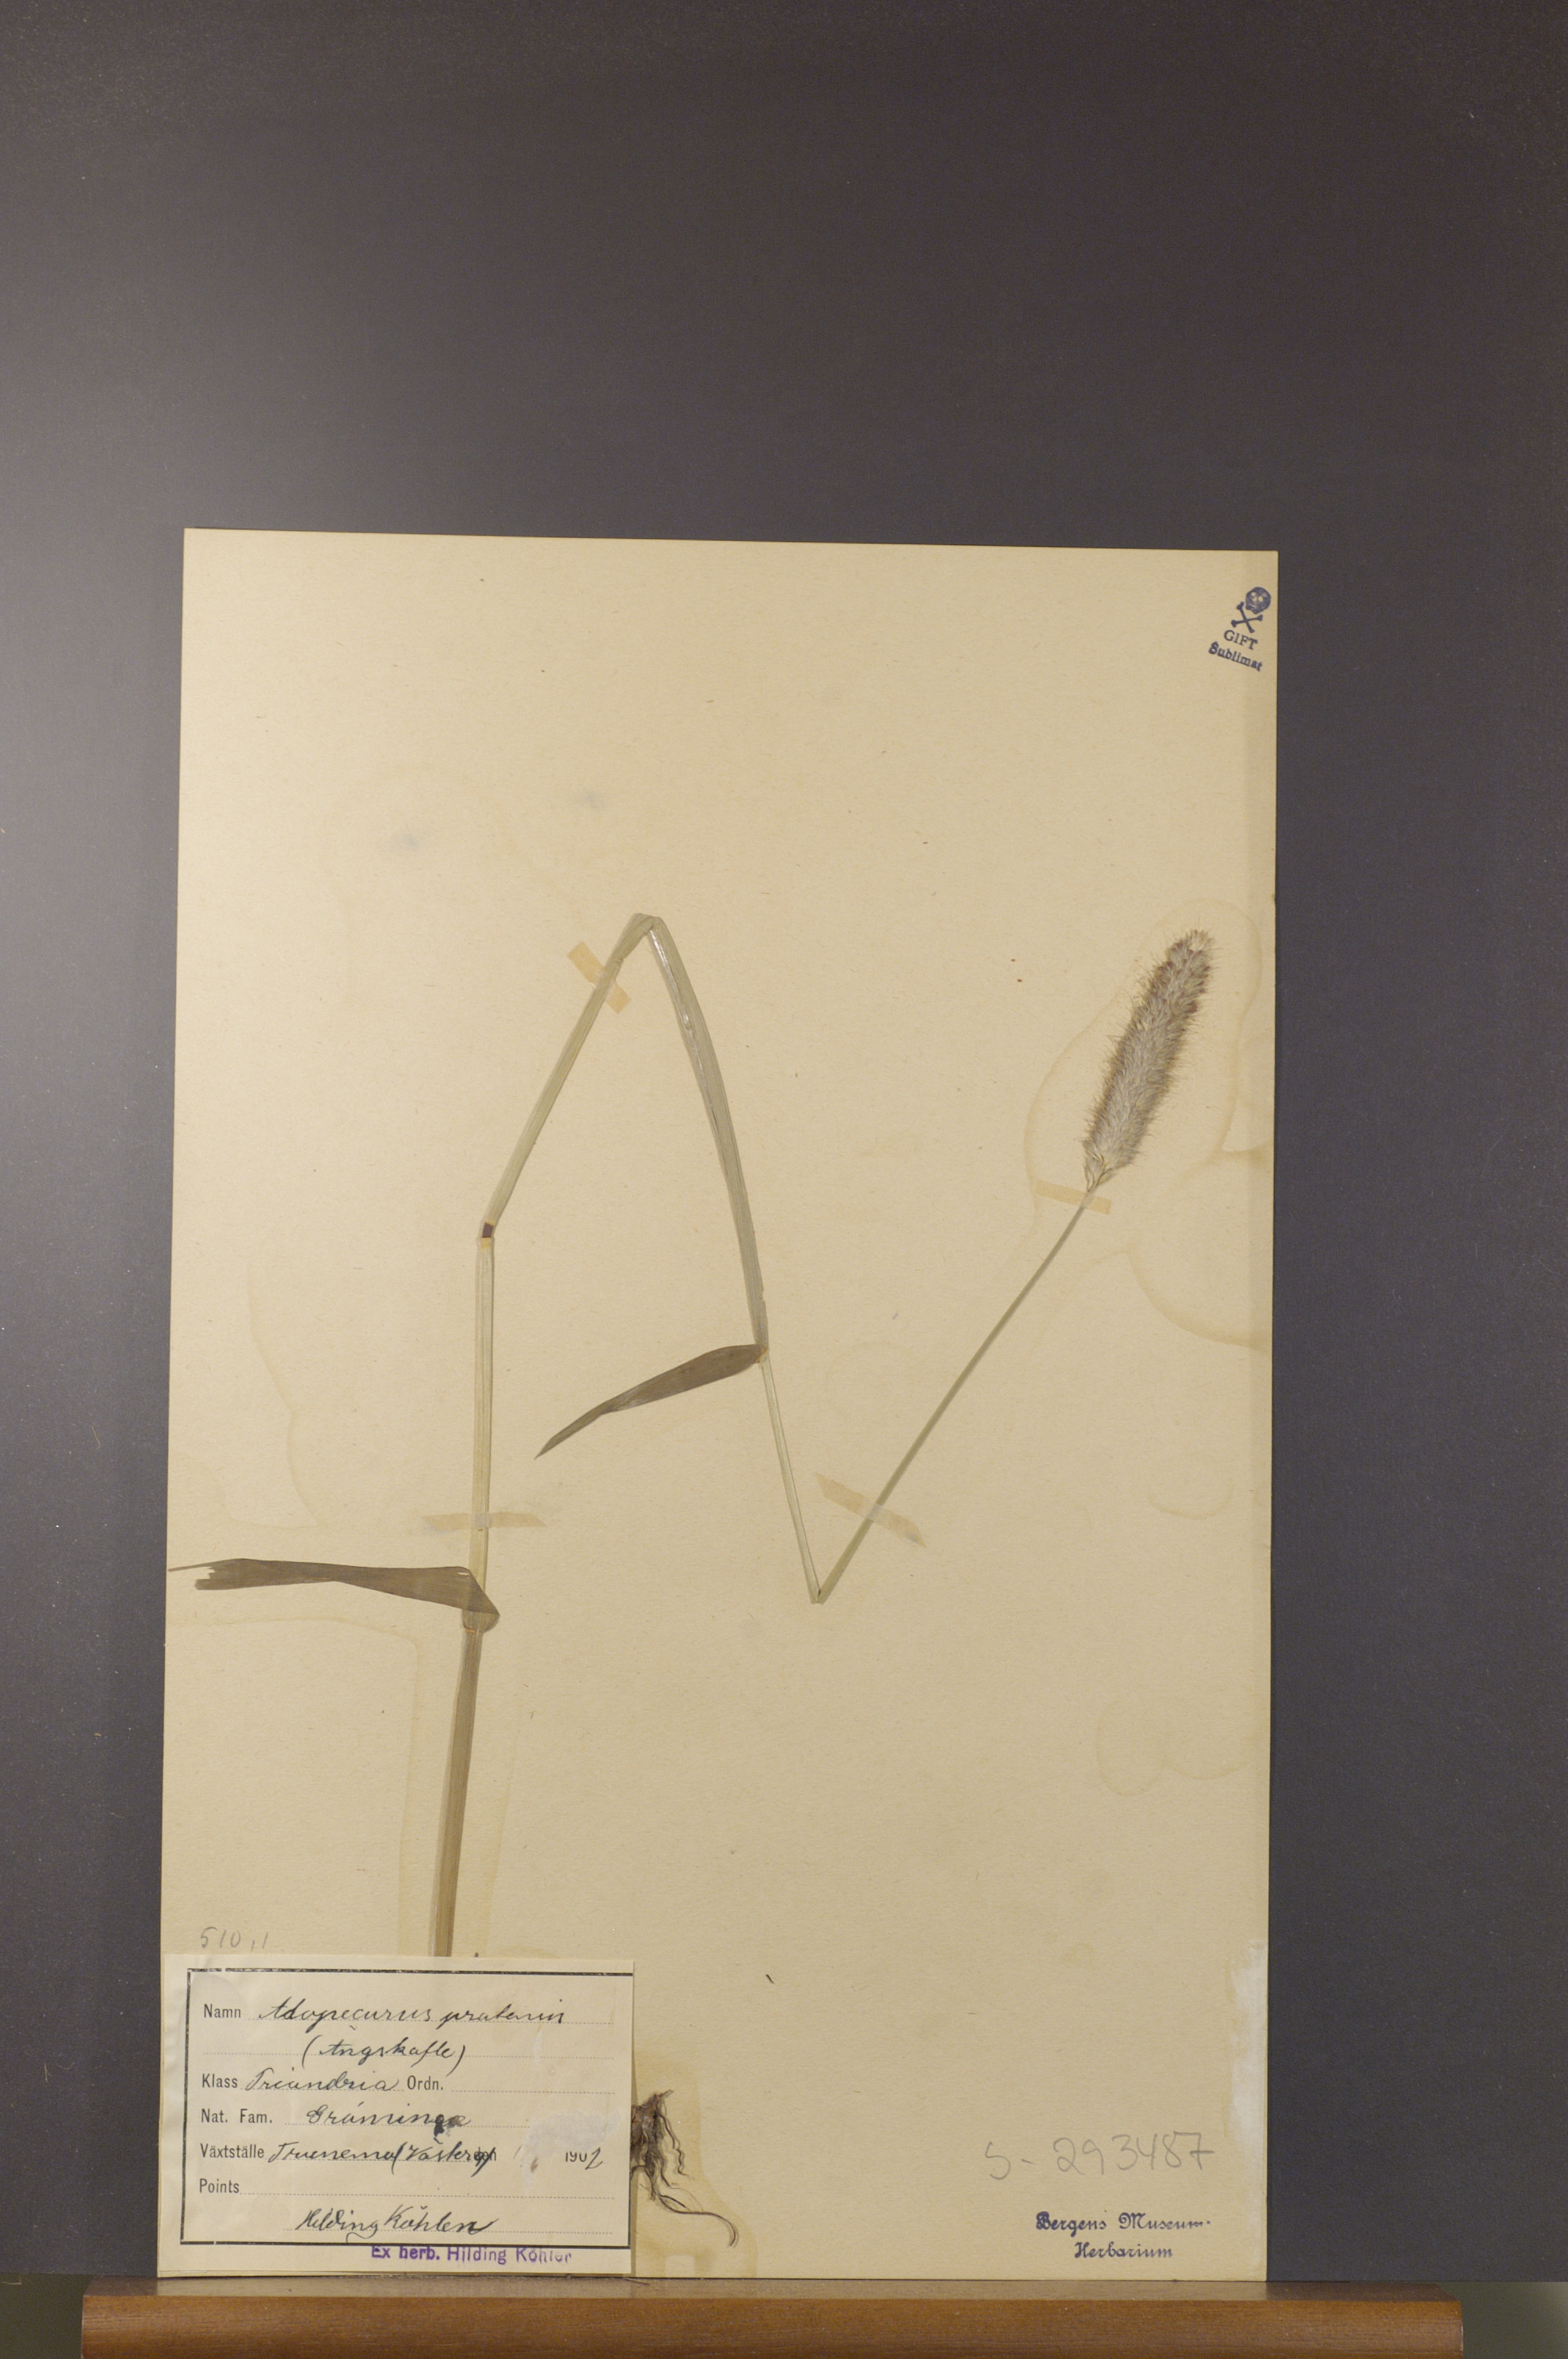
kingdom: Plantae
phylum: Tracheophyta
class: Liliopsida
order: Poales
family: Poaceae
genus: Alopecurus
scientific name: Alopecurus pratensis
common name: Meadow foxtail
